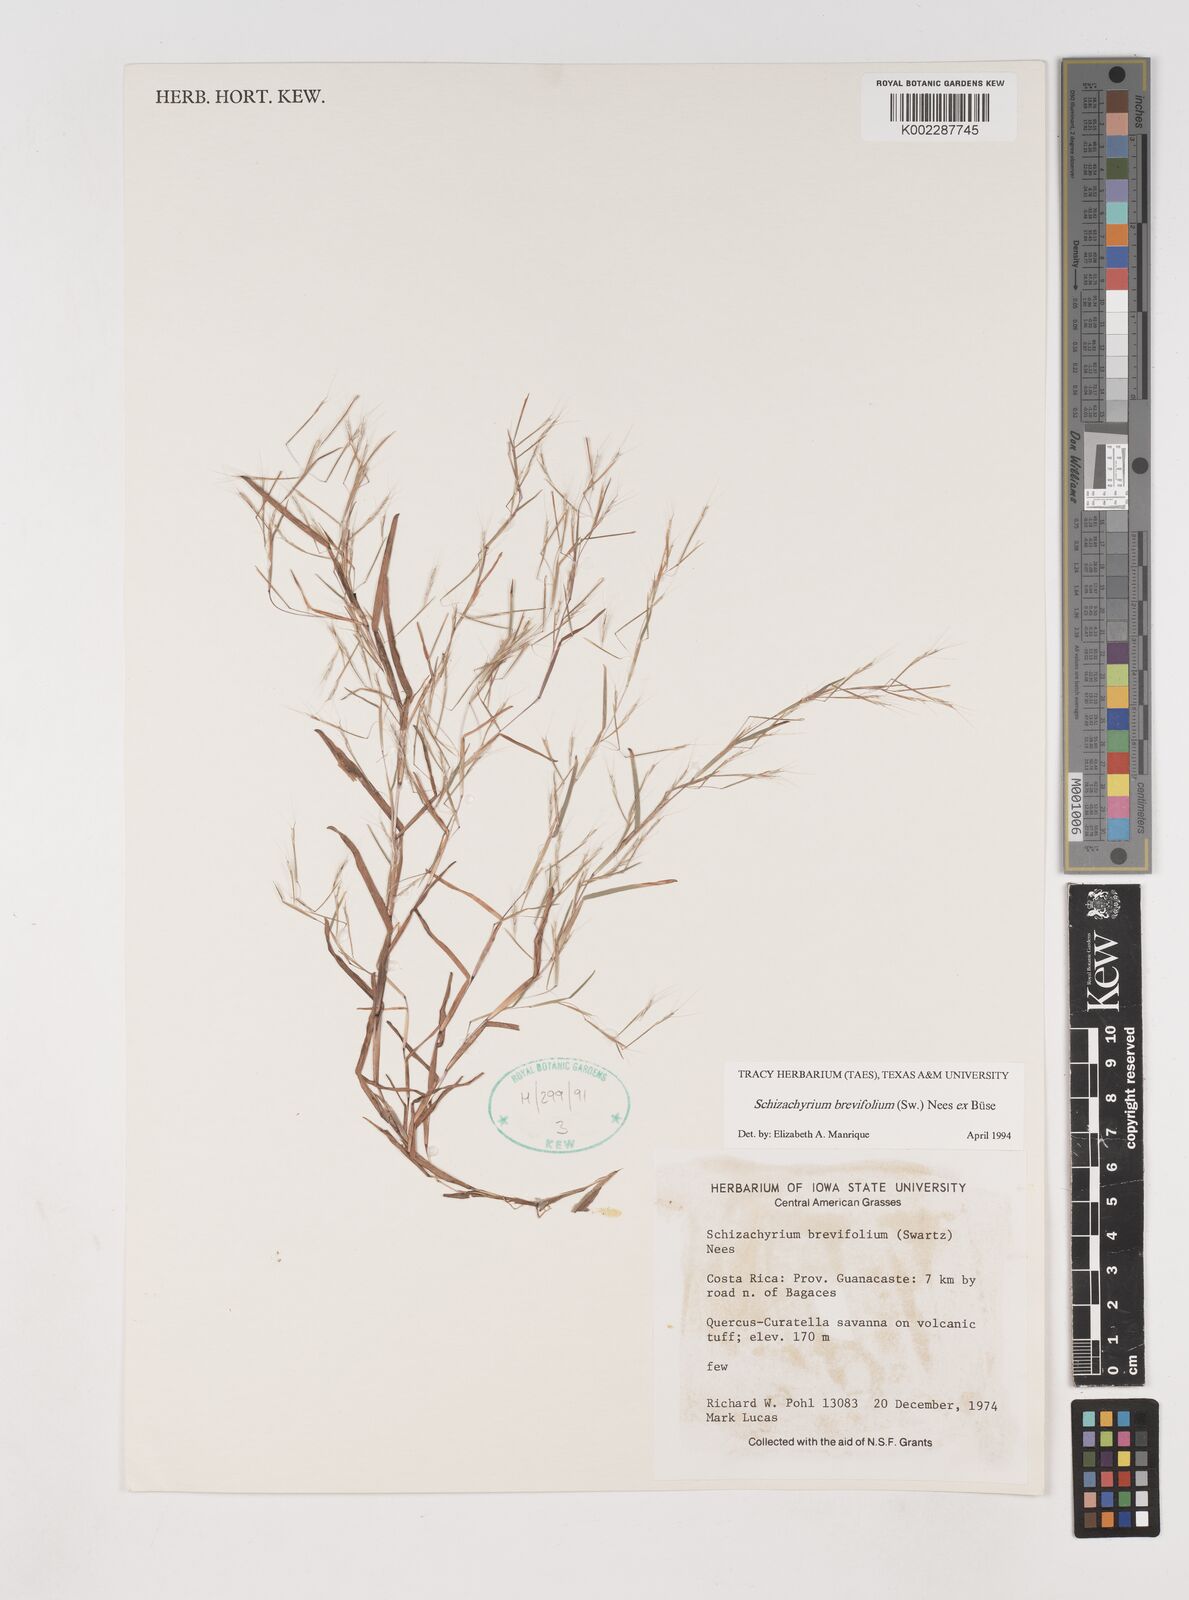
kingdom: Plantae
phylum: Tracheophyta
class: Liliopsida
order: Poales
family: Poaceae
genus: Schizachyrium
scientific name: Schizachyrium brevifolium
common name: Serillo dulce
